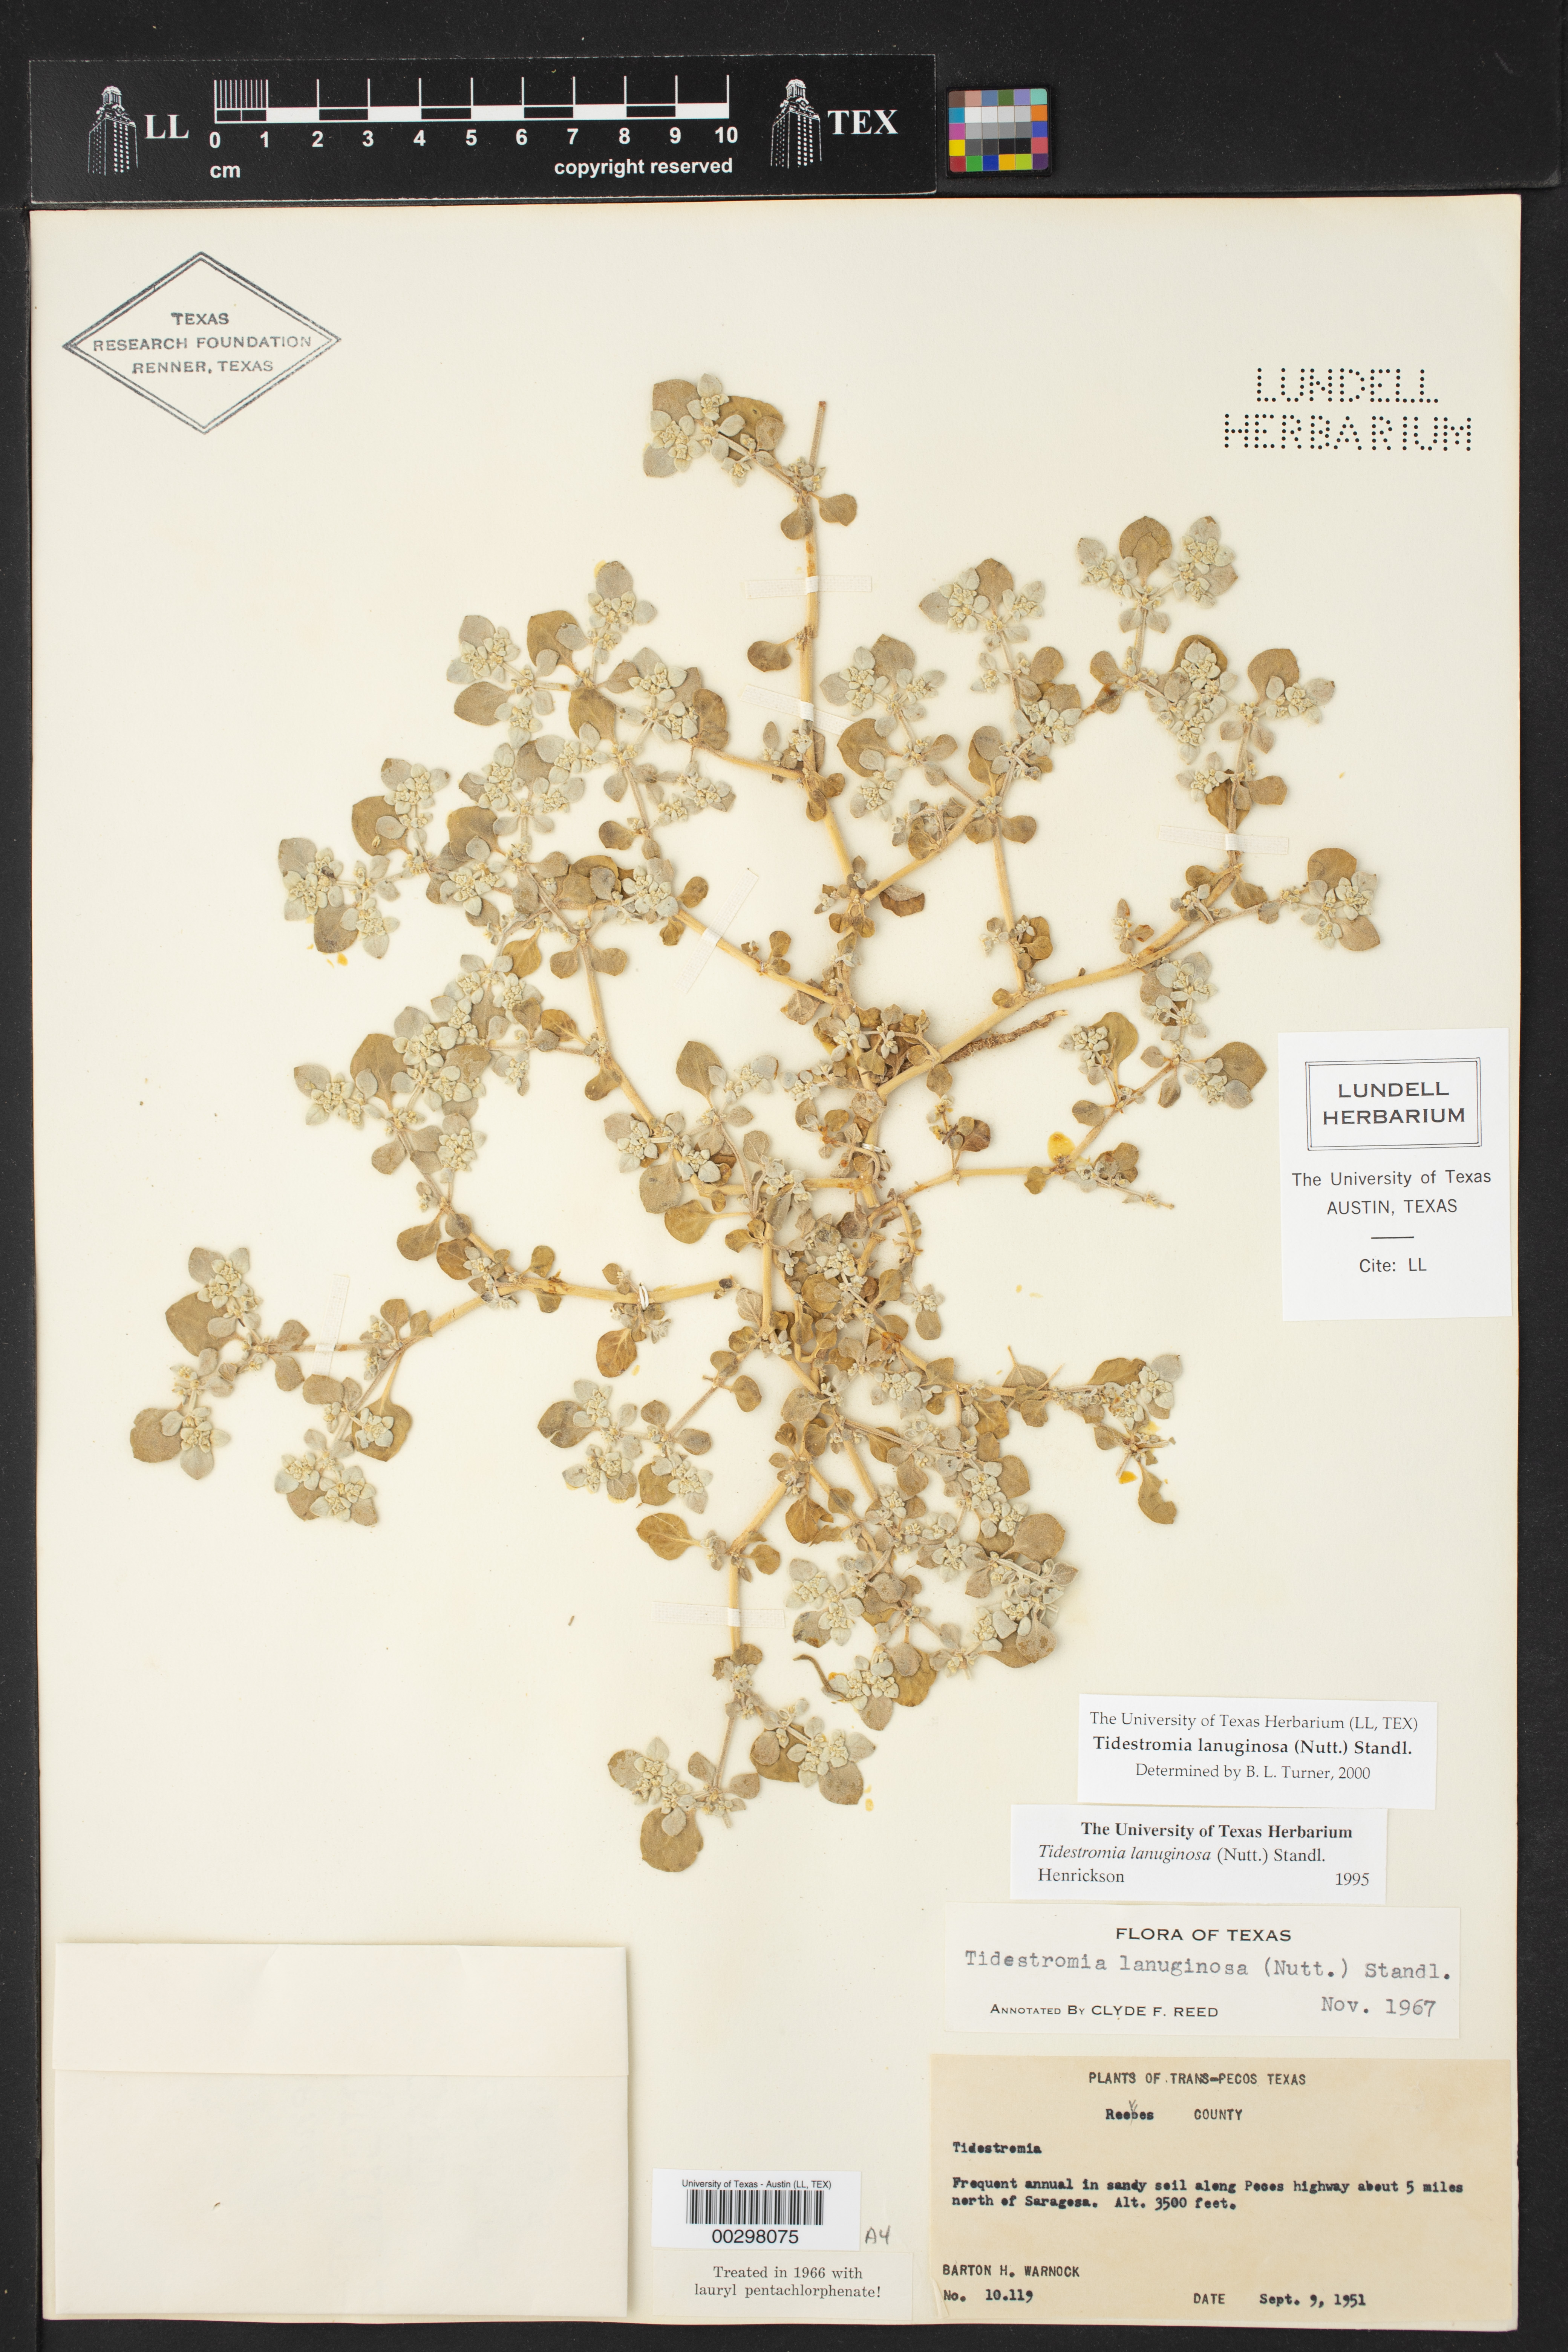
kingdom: Plantae
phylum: Tracheophyta
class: Magnoliopsida
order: Caryophyllales
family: Amaranthaceae
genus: Tidestromia
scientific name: Tidestromia lanuginosa
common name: Woolly tidestromia
